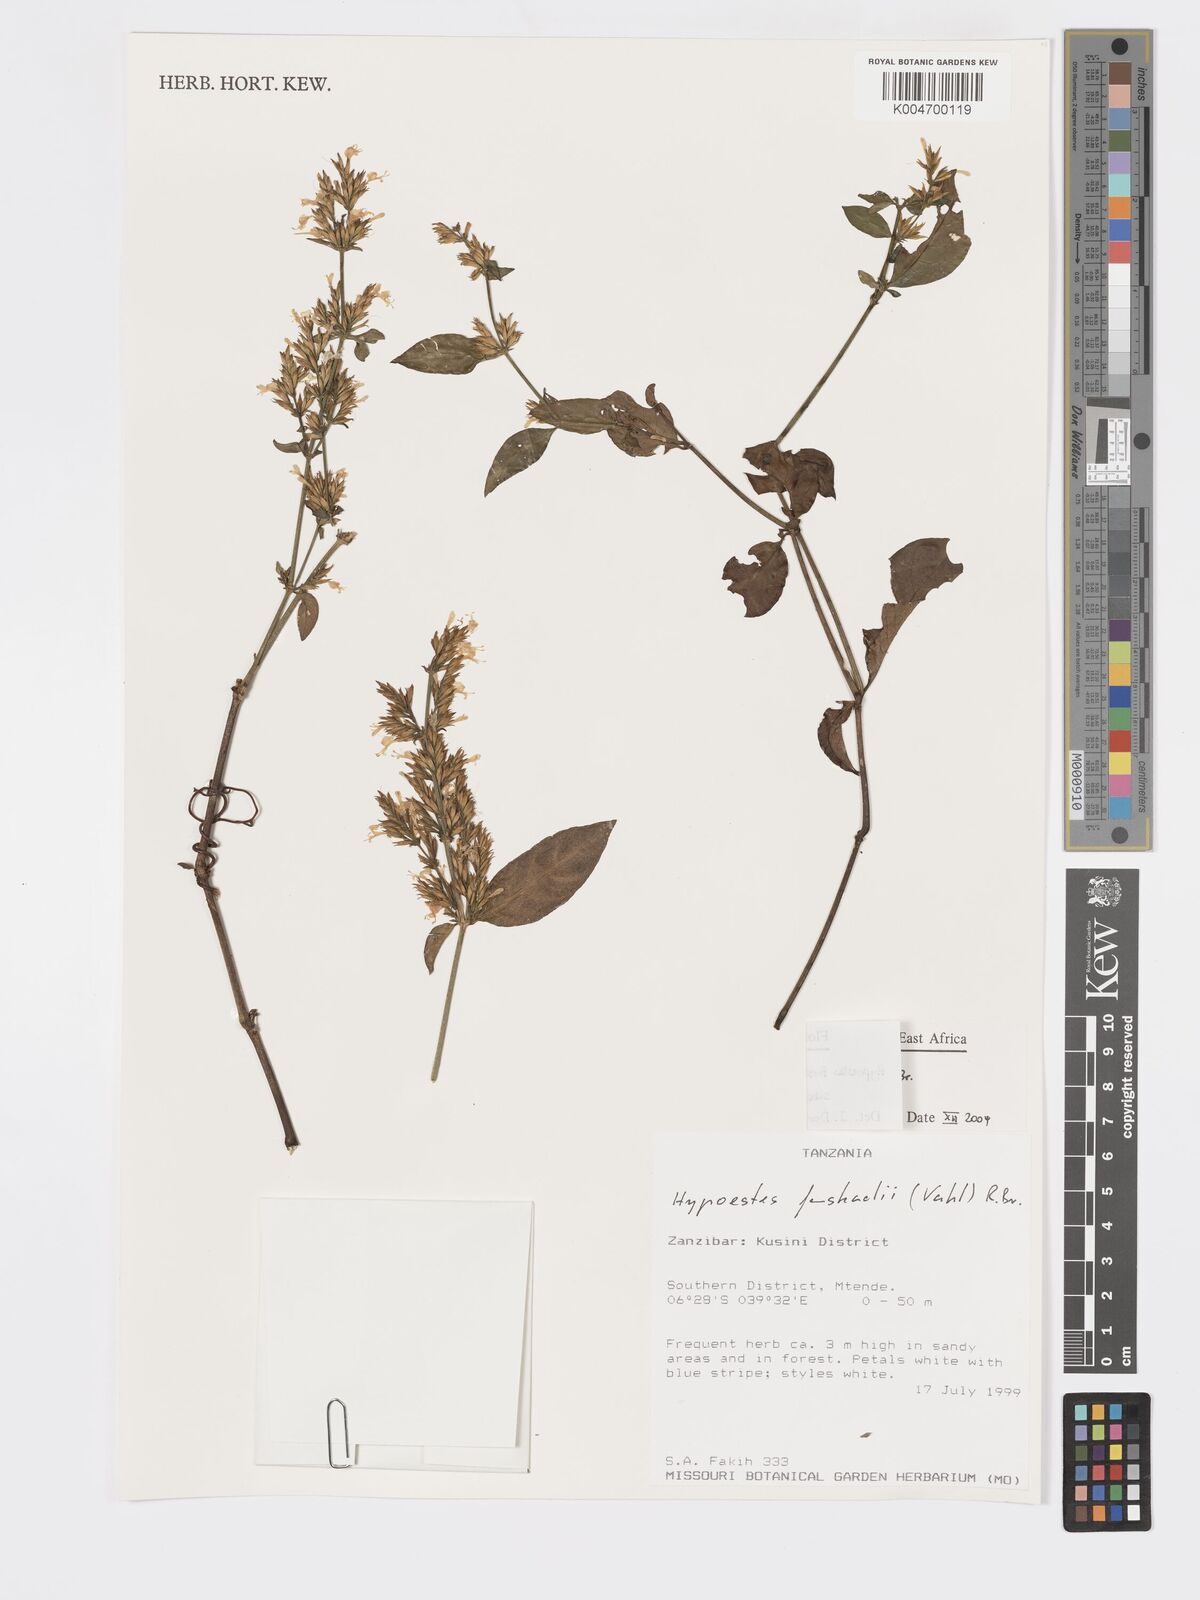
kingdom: Plantae
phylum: Tracheophyta
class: Magnoliopsida
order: Lamiales
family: Acanthaceae
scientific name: Acanthaceae
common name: Acanthaceae
